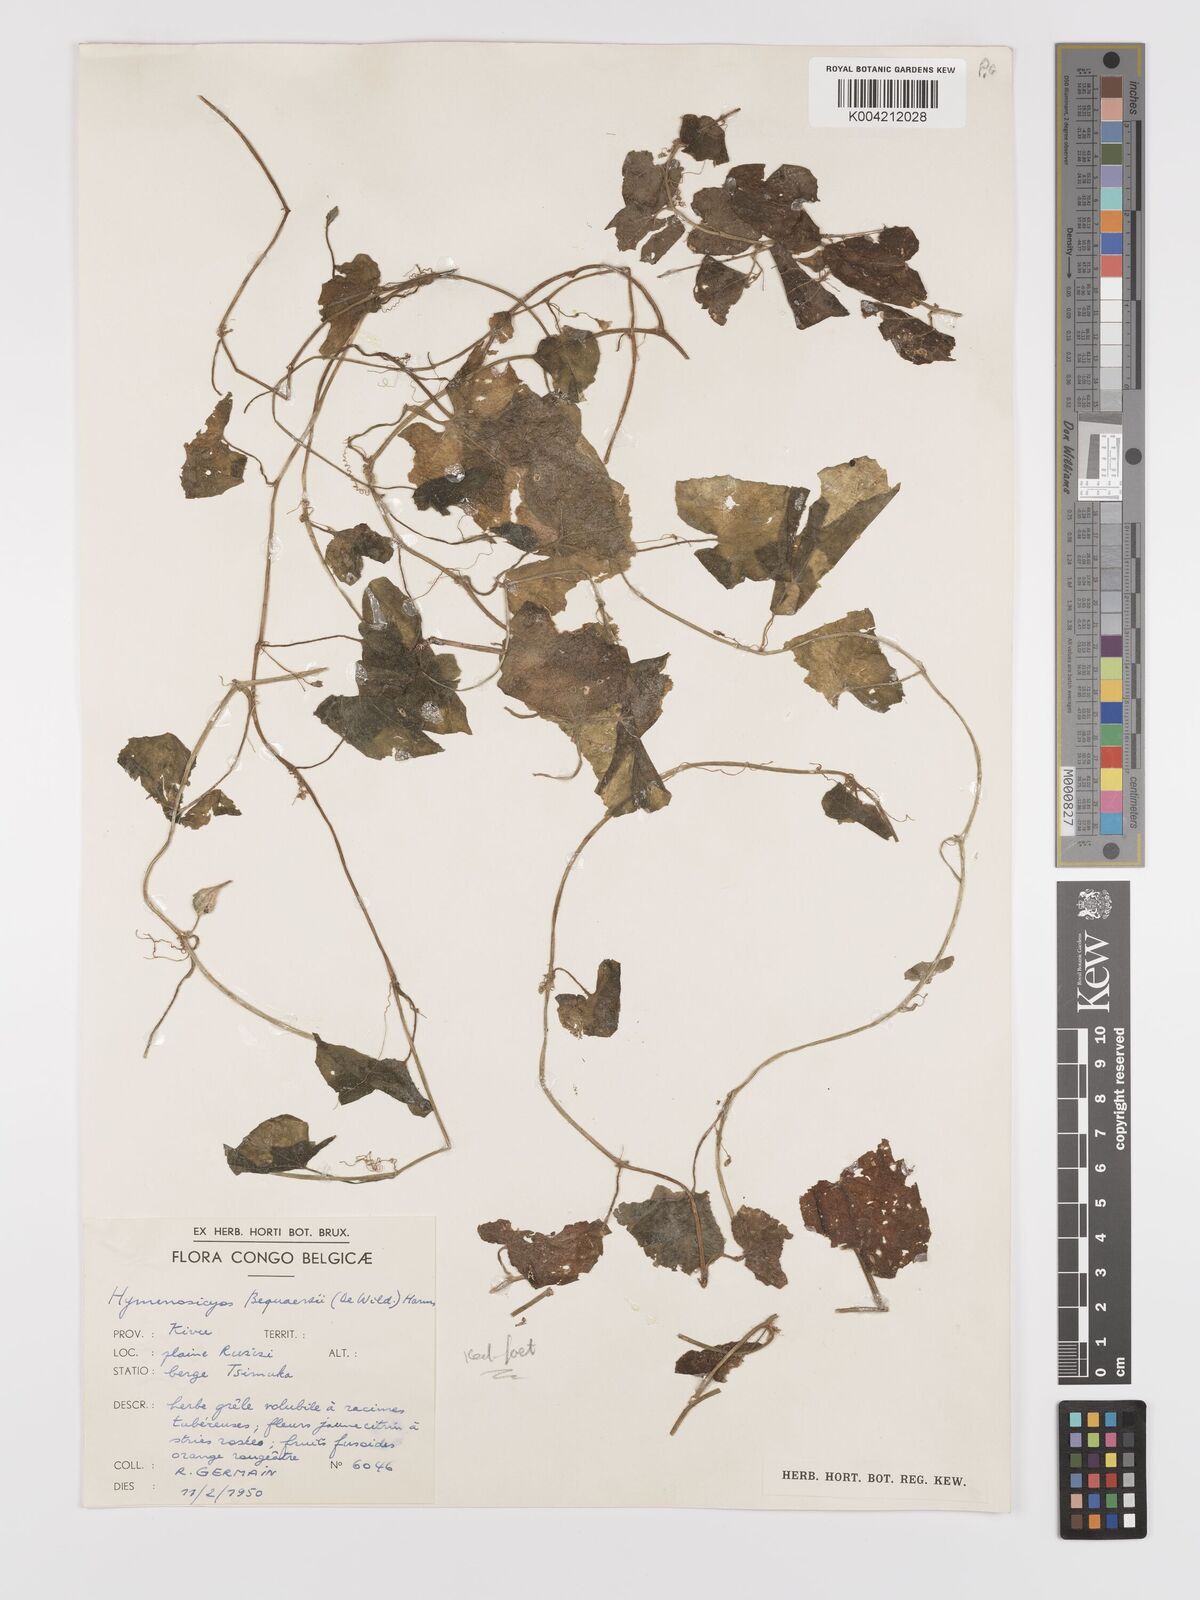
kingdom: Plantae
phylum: Tracheophyta
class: Magnoliopsida
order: Cucurbitales
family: Cucurbitaceae
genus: Kedrostis
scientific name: Kedrostis foetidissima
